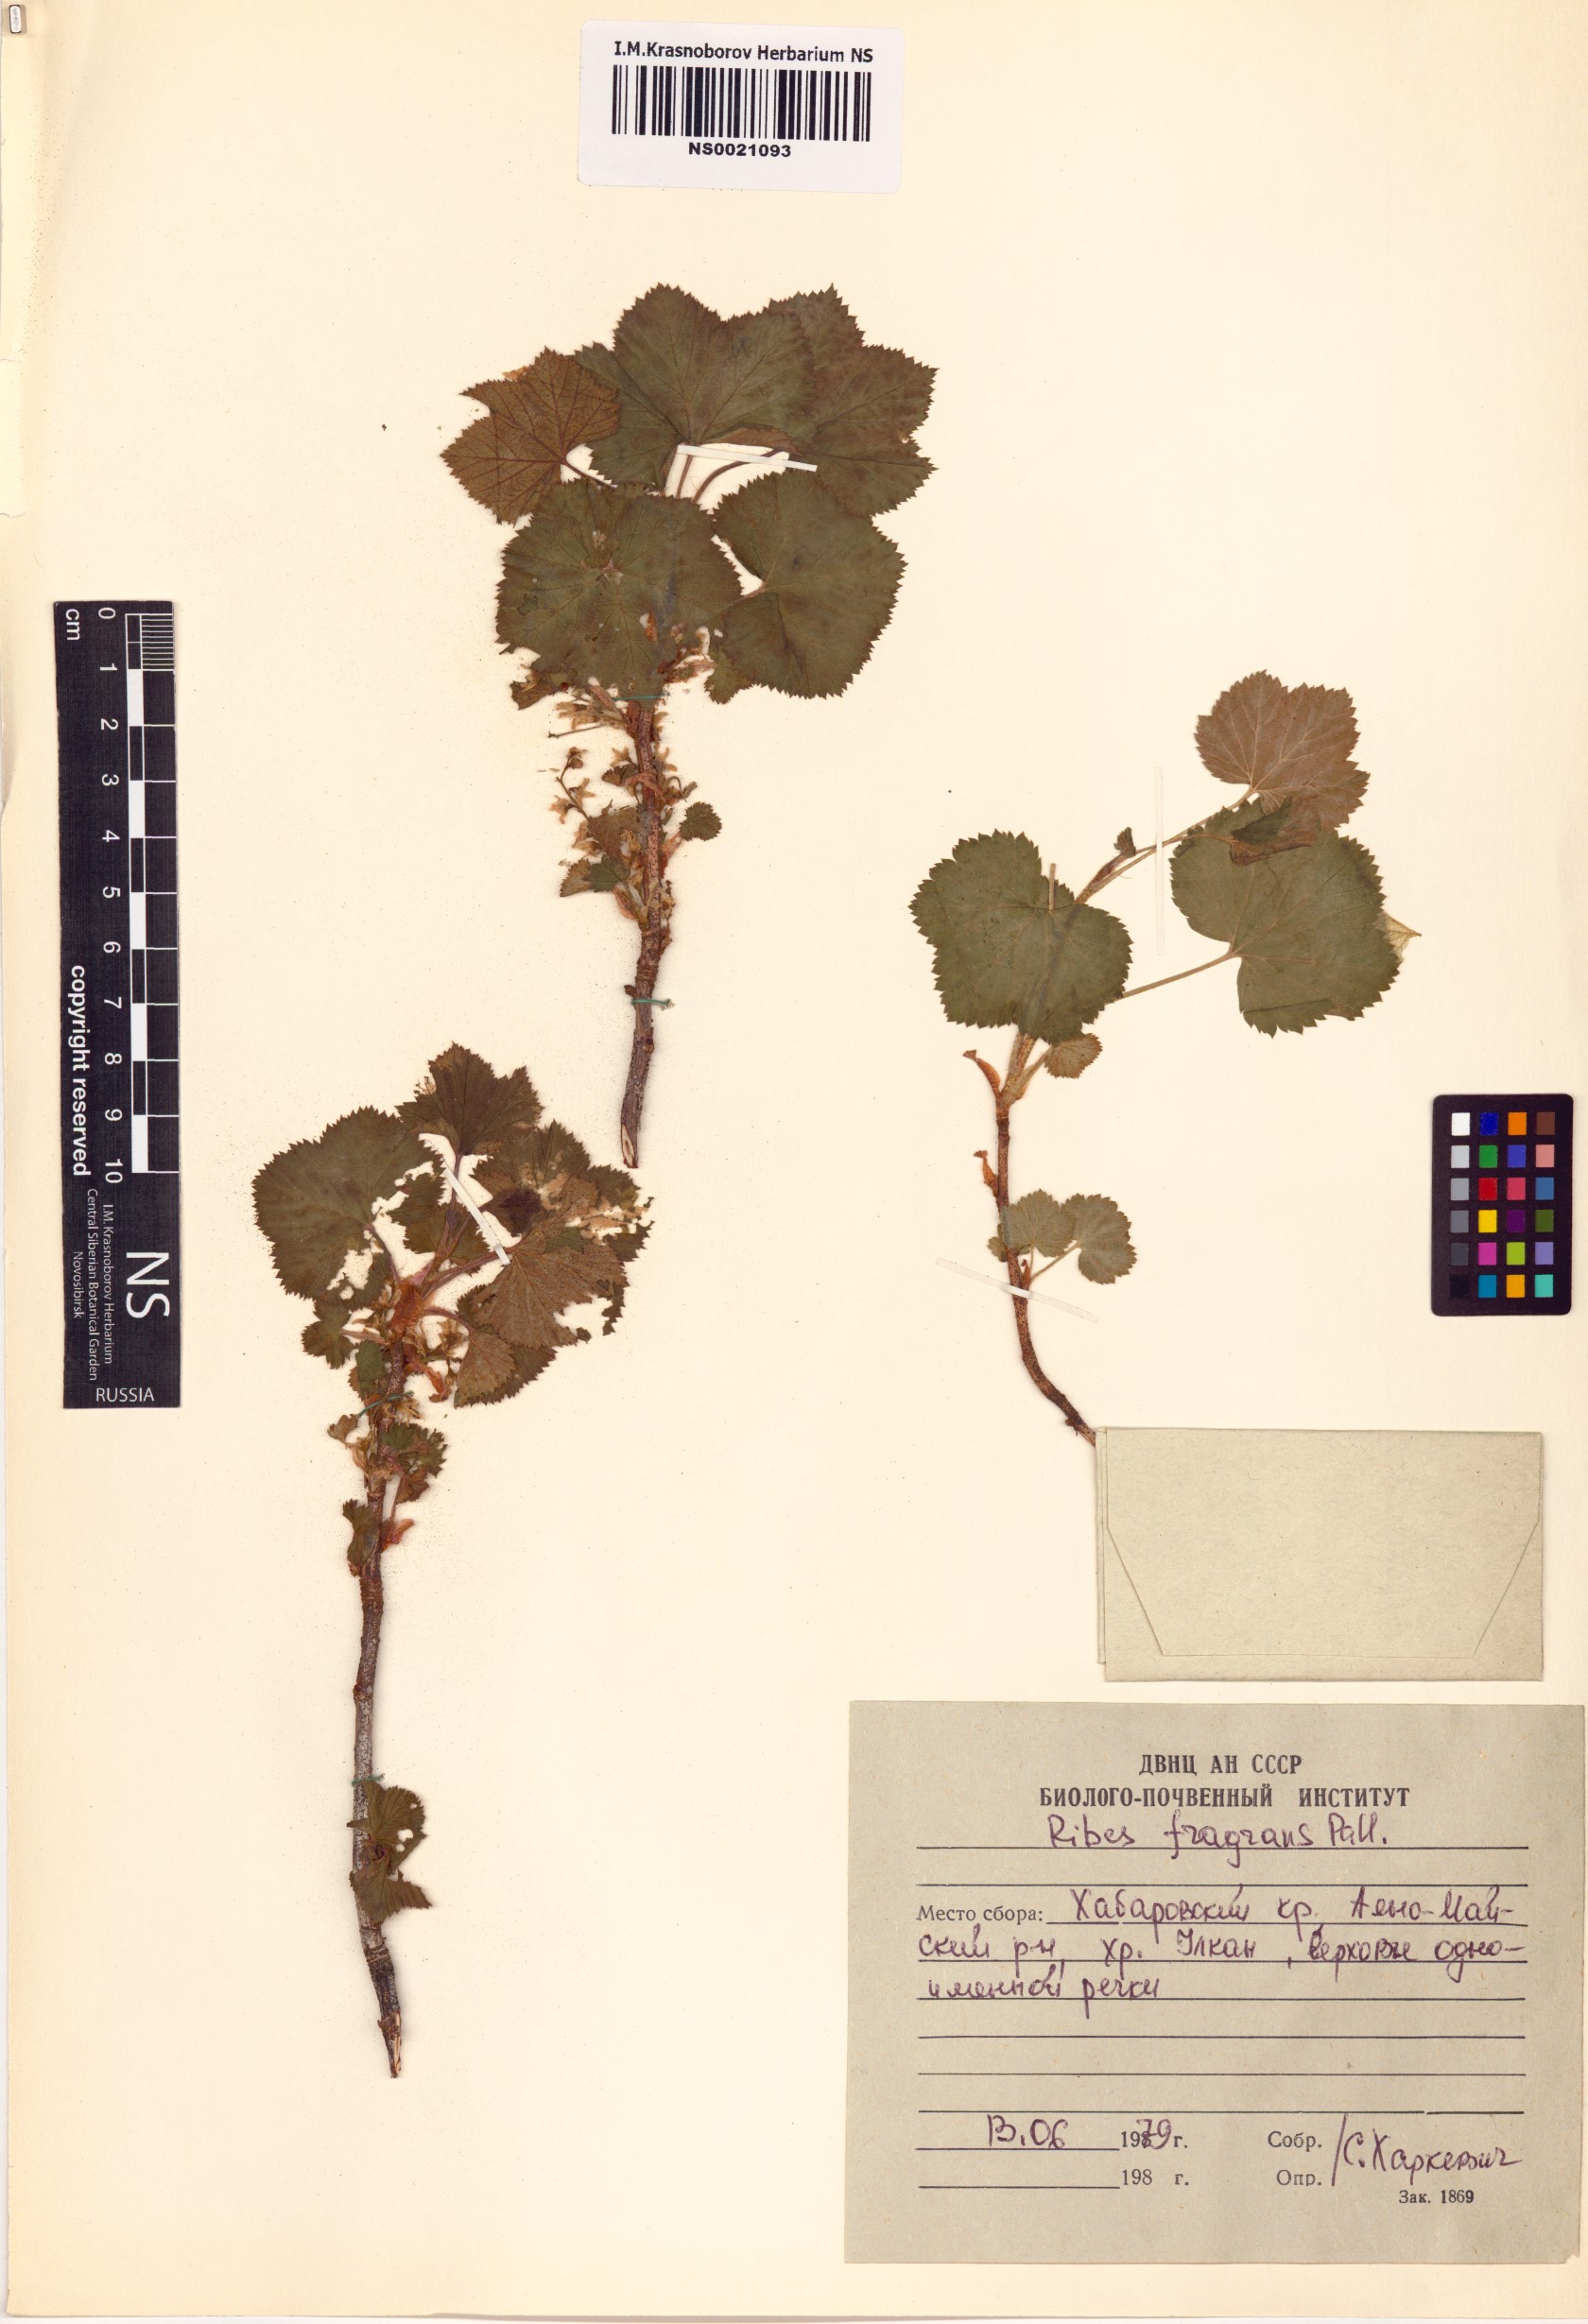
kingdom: Plantae
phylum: Tracheophyta
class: Magnoliopsida
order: Saxifragales
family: Grossulariaceae
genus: Ribes
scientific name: Ribes fragrans
